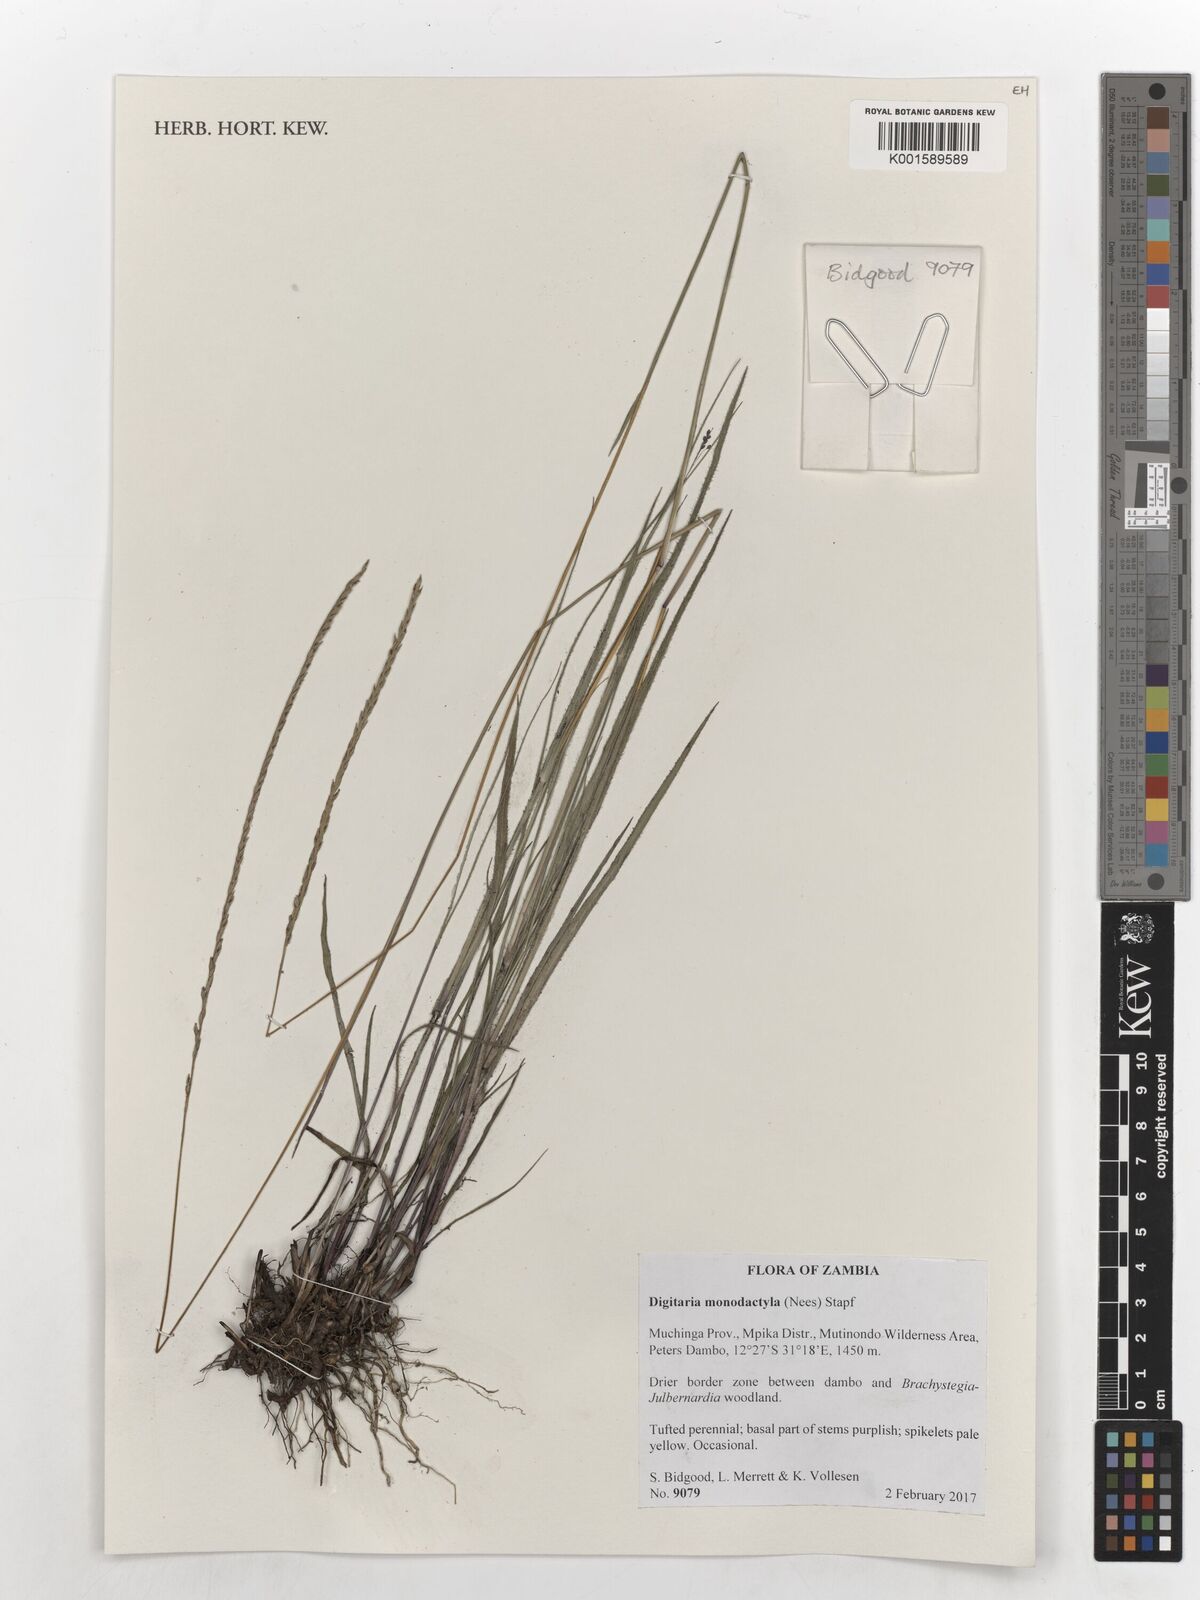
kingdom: Plantae
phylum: Tracheophyta
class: Liliopsida
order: Poales
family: Poaceae
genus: Digitaria
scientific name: Digitaria monodactyla
